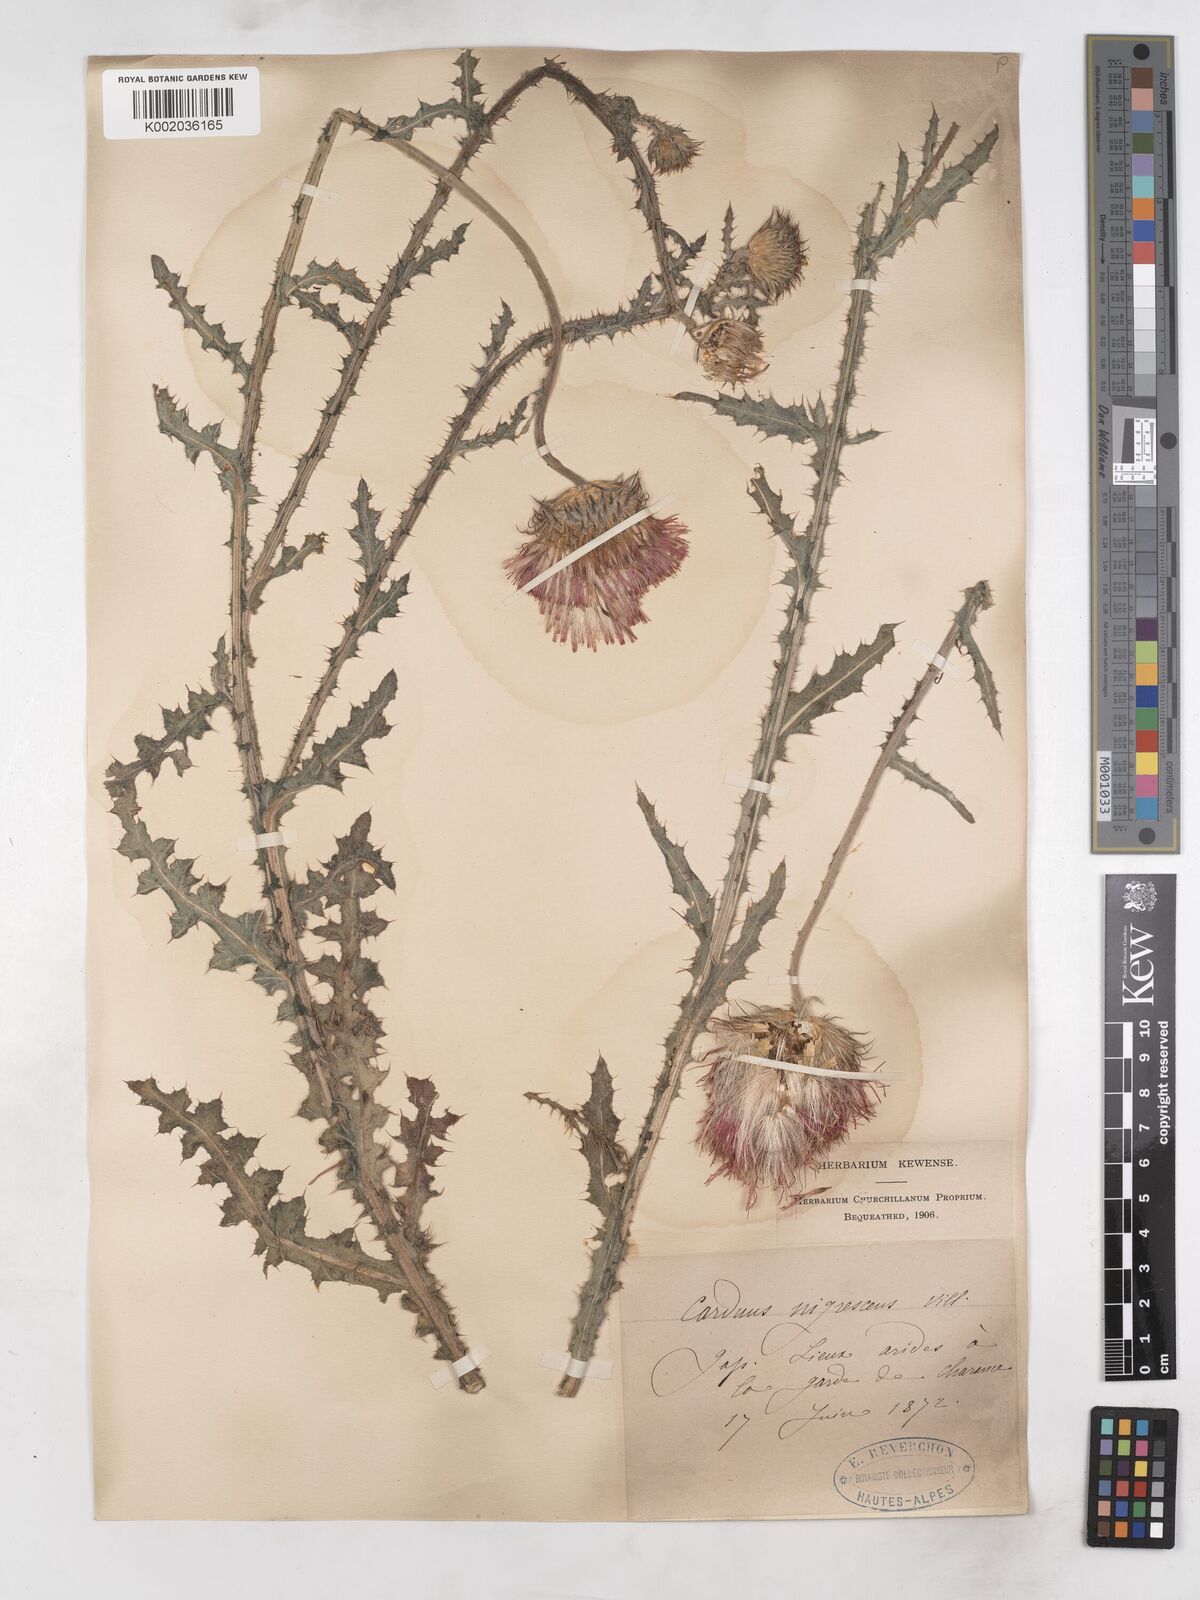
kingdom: Plantae
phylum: Tracheophyta
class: Magnoliopsida
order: Asterales
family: Asteraceae
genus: Carduus
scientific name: Carduus nigrescens
